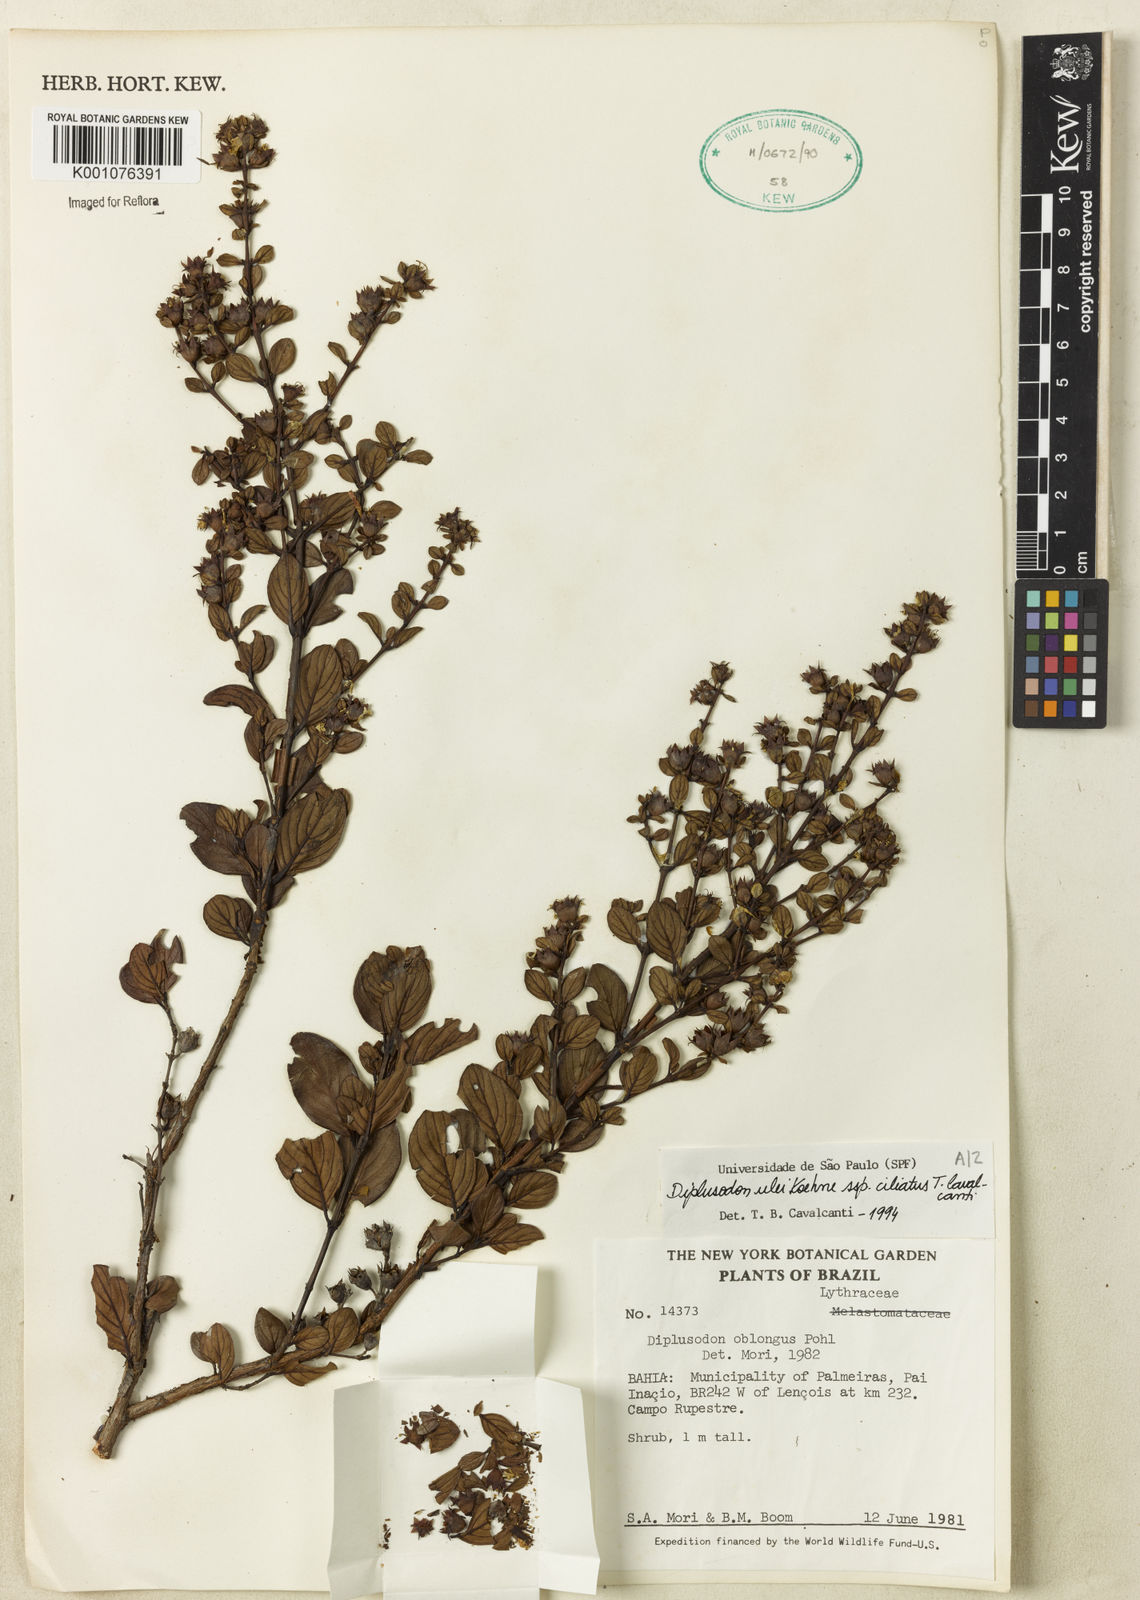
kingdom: Plantae
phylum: Tracheophyta
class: Magnoliopsida
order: Myrtales
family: Lythraceae
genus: Diplusodon
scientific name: Diplusodon ulei
